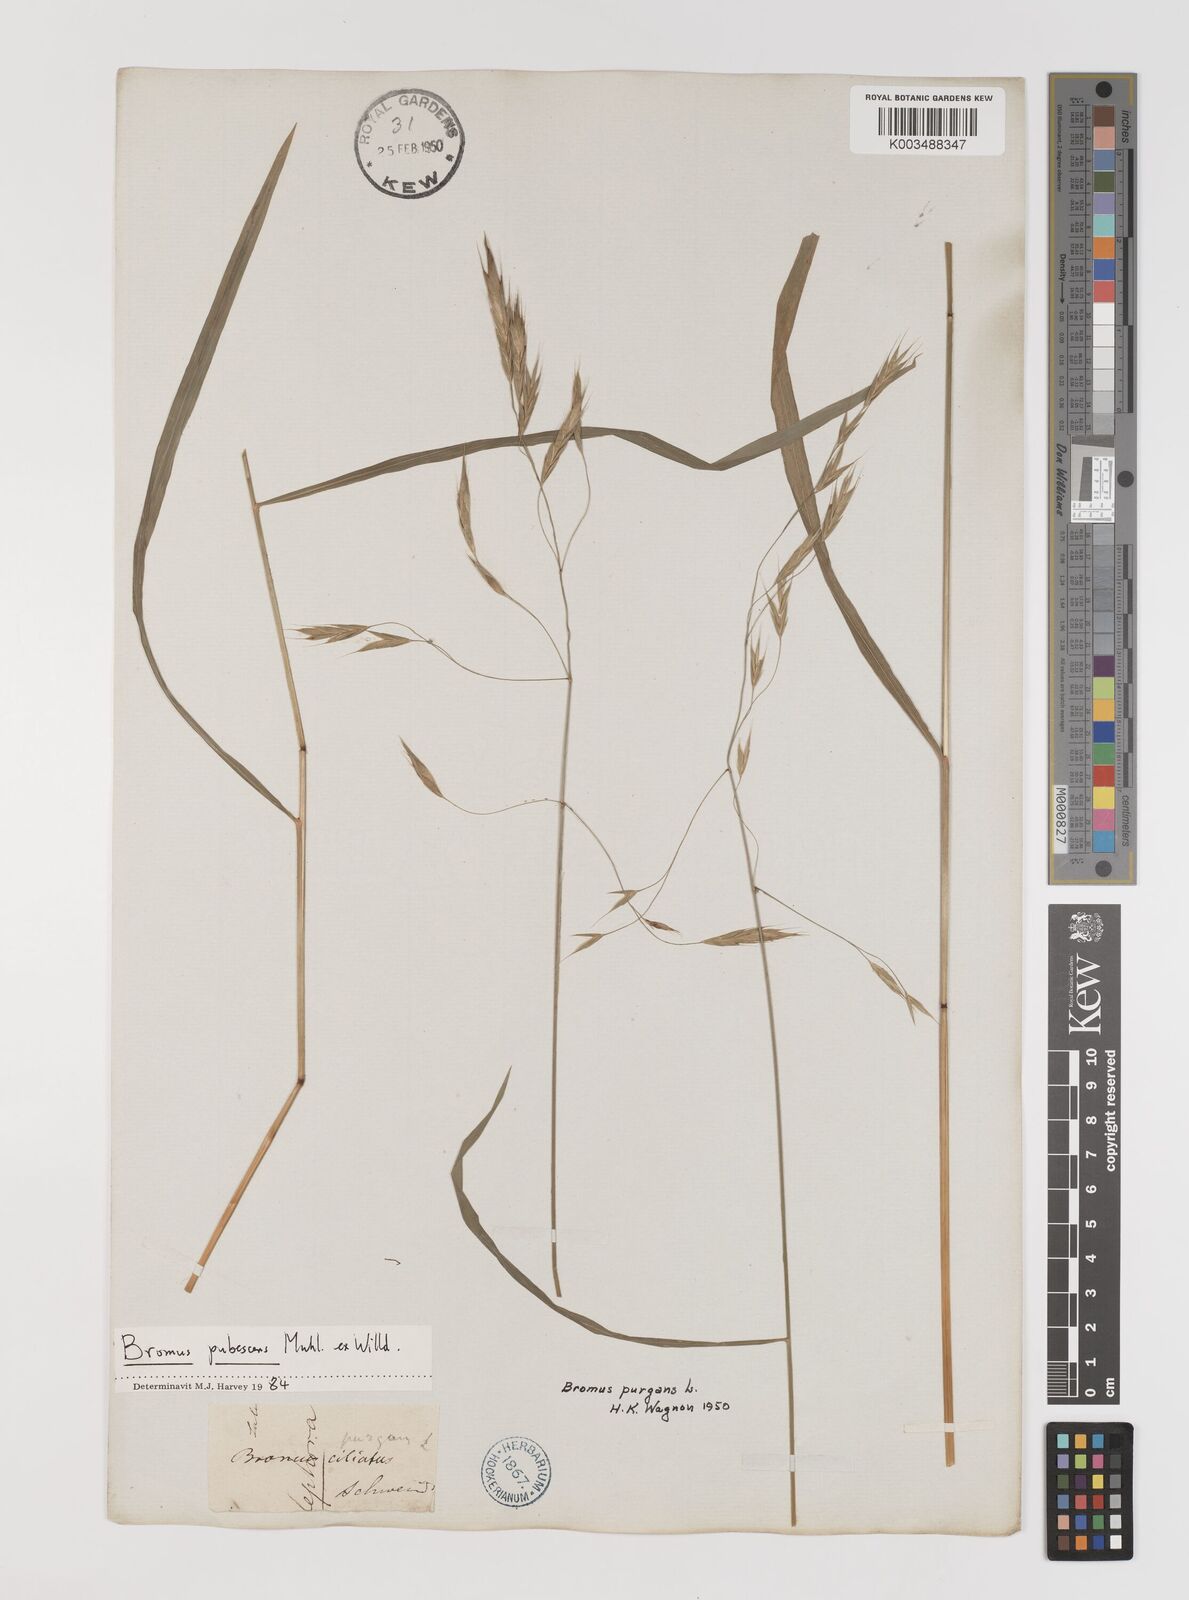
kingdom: Plantae
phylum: Tracheophyta
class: Liliopsida
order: Poales
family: Poaceae
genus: Bromus
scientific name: Bromus pubescens
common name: Hairy wood brome grass
